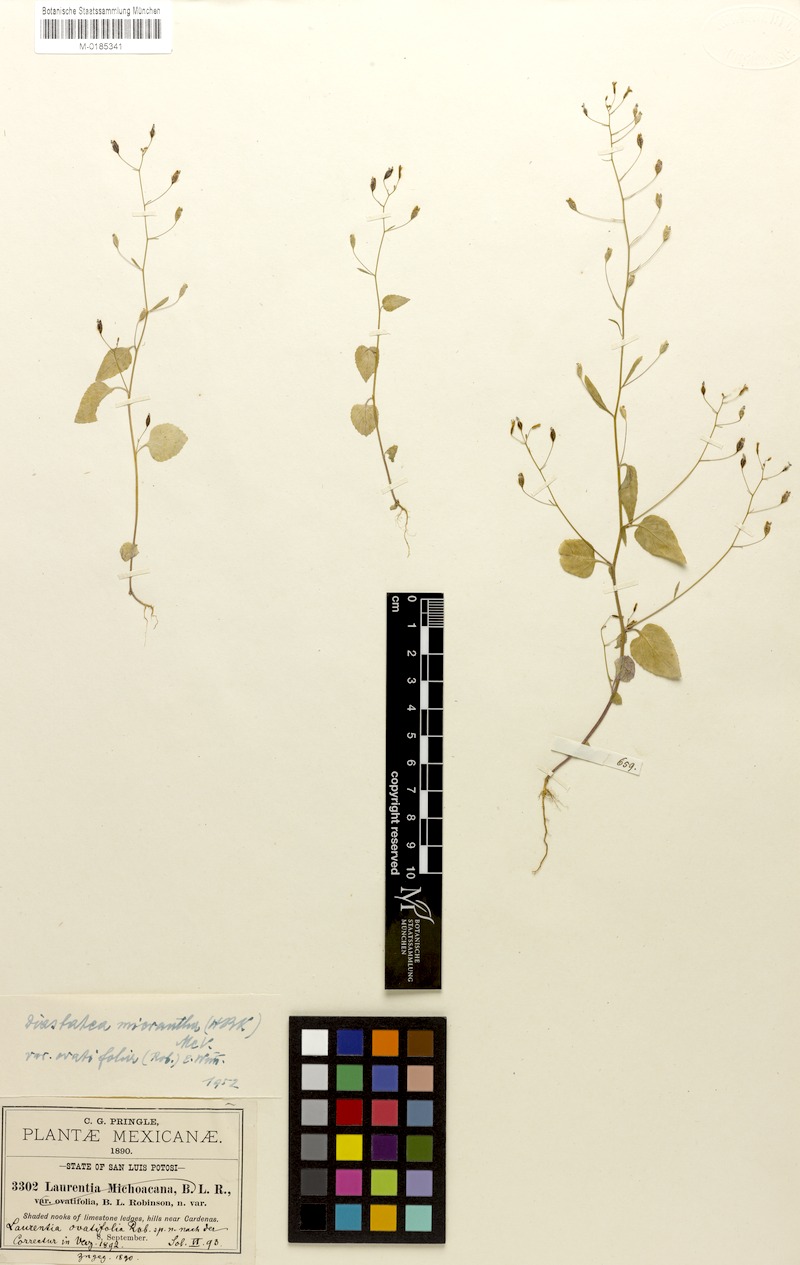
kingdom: Plantae
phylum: Tracheophyta
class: Magnoliopsida
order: Asterales
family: Campanulaceae
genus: Diastatea
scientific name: Diastatea micrantha
